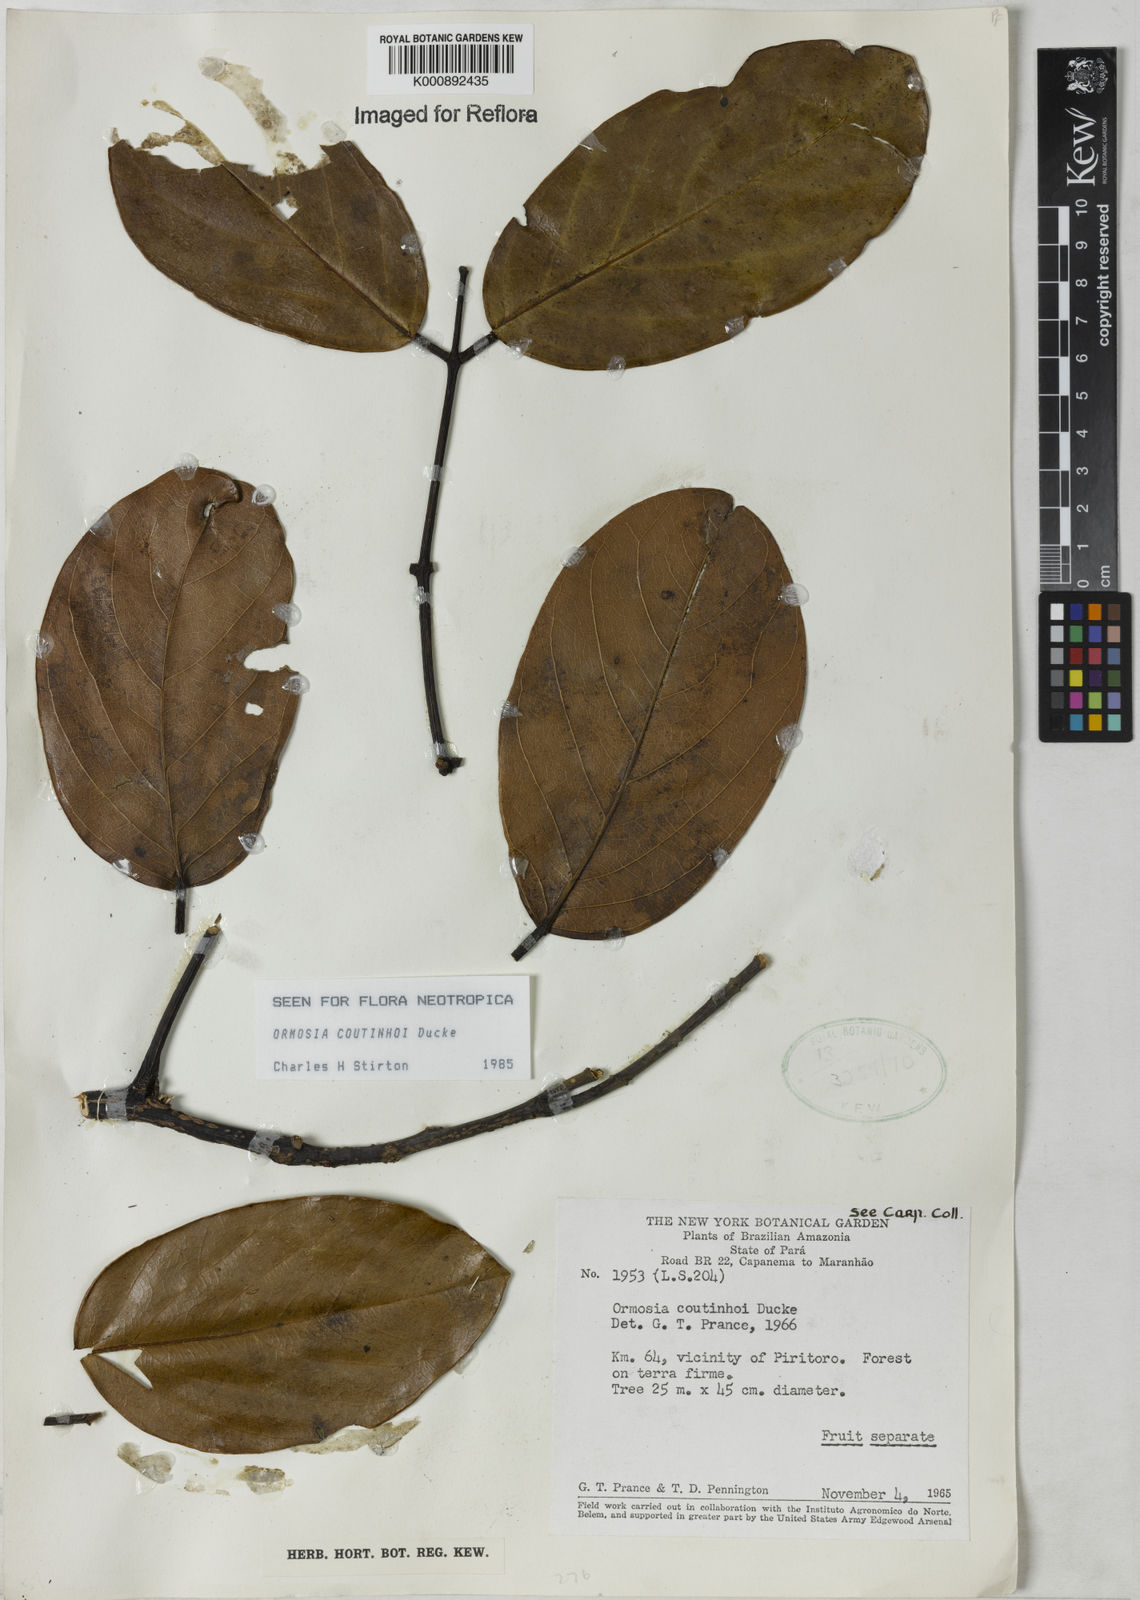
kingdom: Plantae
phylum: Tracheophyta
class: Magnoliopsida
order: Fabales
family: Fabaceae
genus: Ormosia
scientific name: Ormosia coutinhoi
